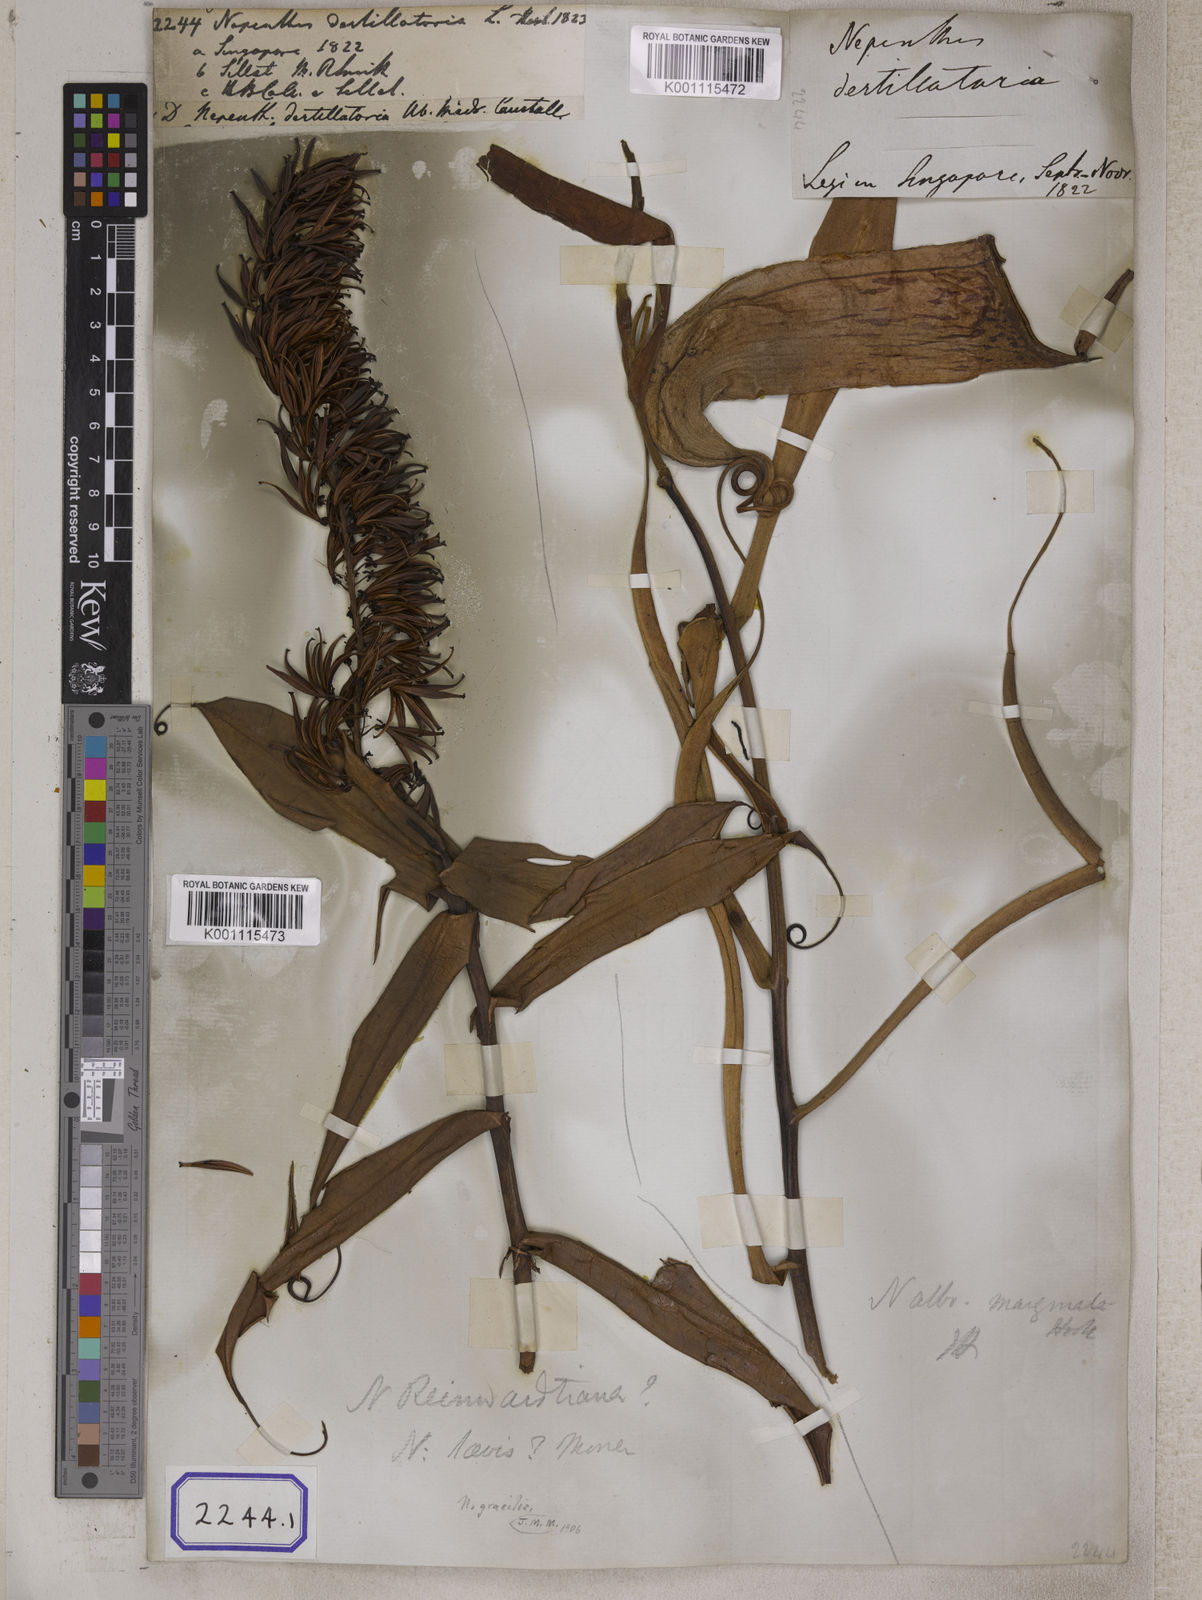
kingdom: Plantae
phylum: Tracheophyta
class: Magnoliopsida
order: Caryophyllales
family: Nepenthaceae
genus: Nepenthes
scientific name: Nepenthes distillatoria
